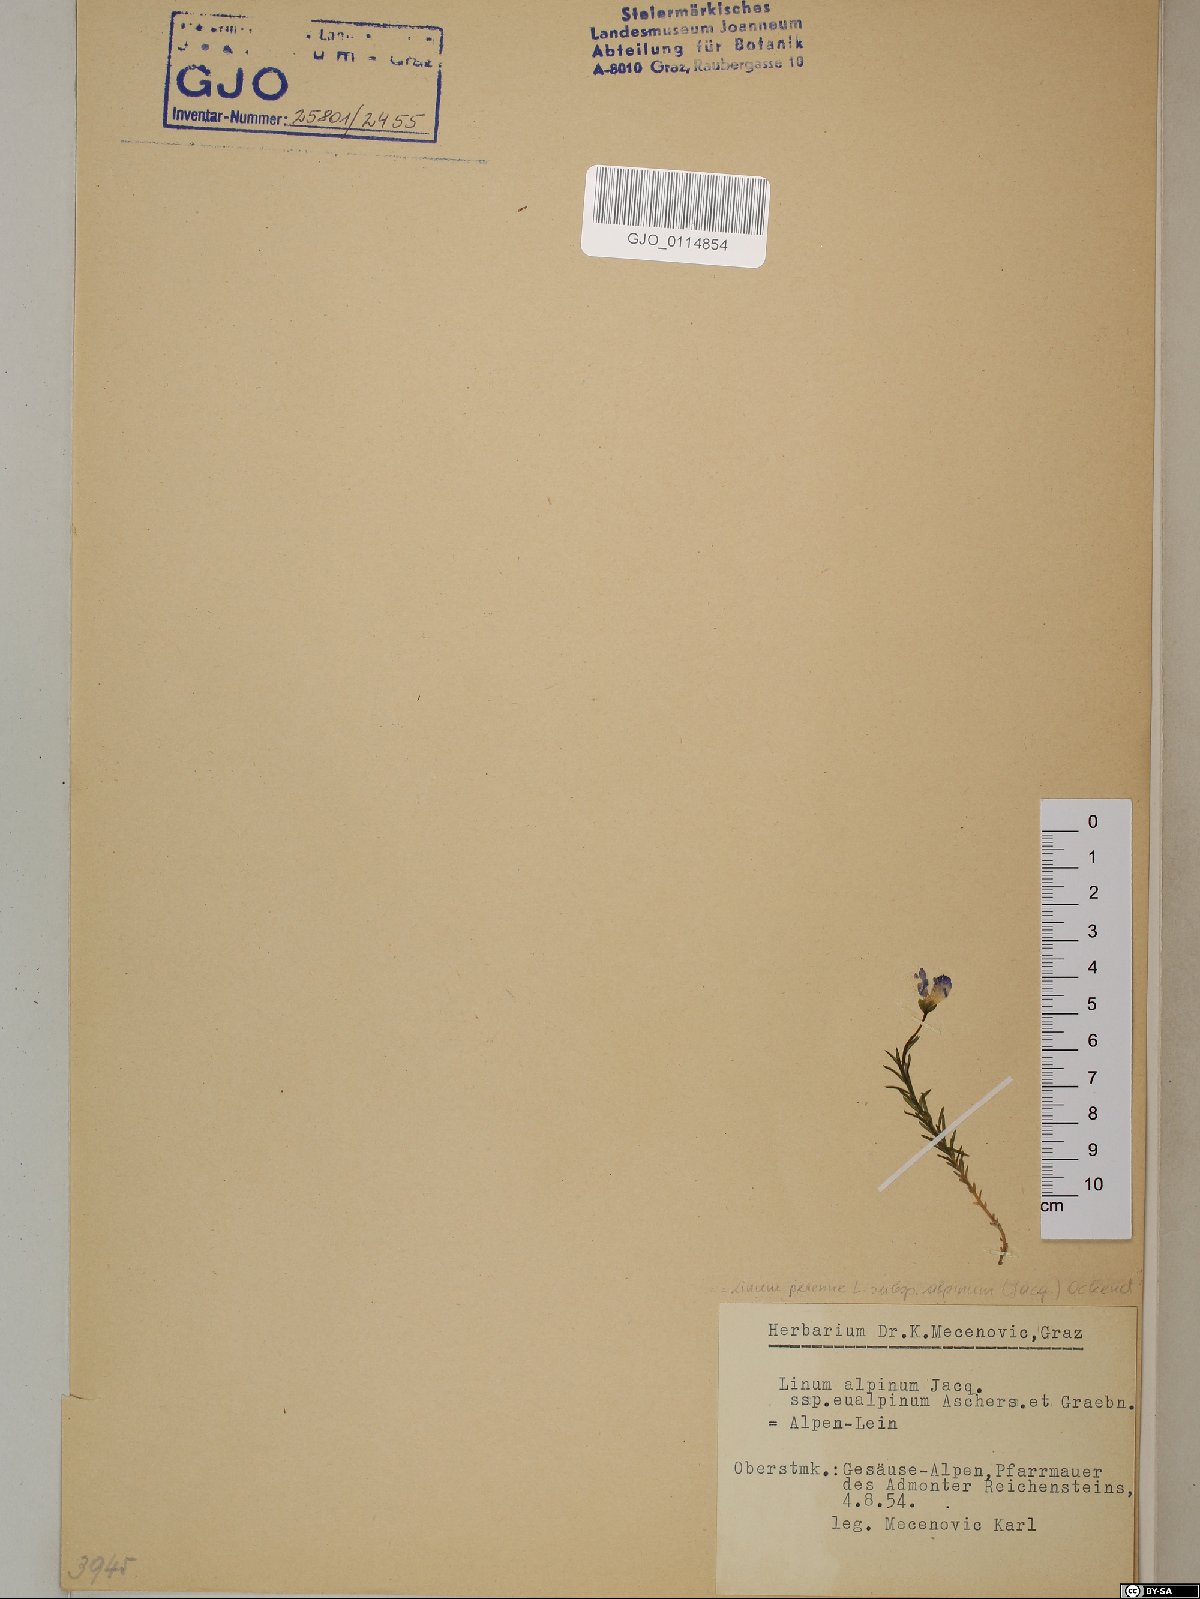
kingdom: Plantae
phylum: Tracheophyta
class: Magnoliopsida
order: Malpighiales
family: Linaceae
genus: Linum
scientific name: Linum alpinum
